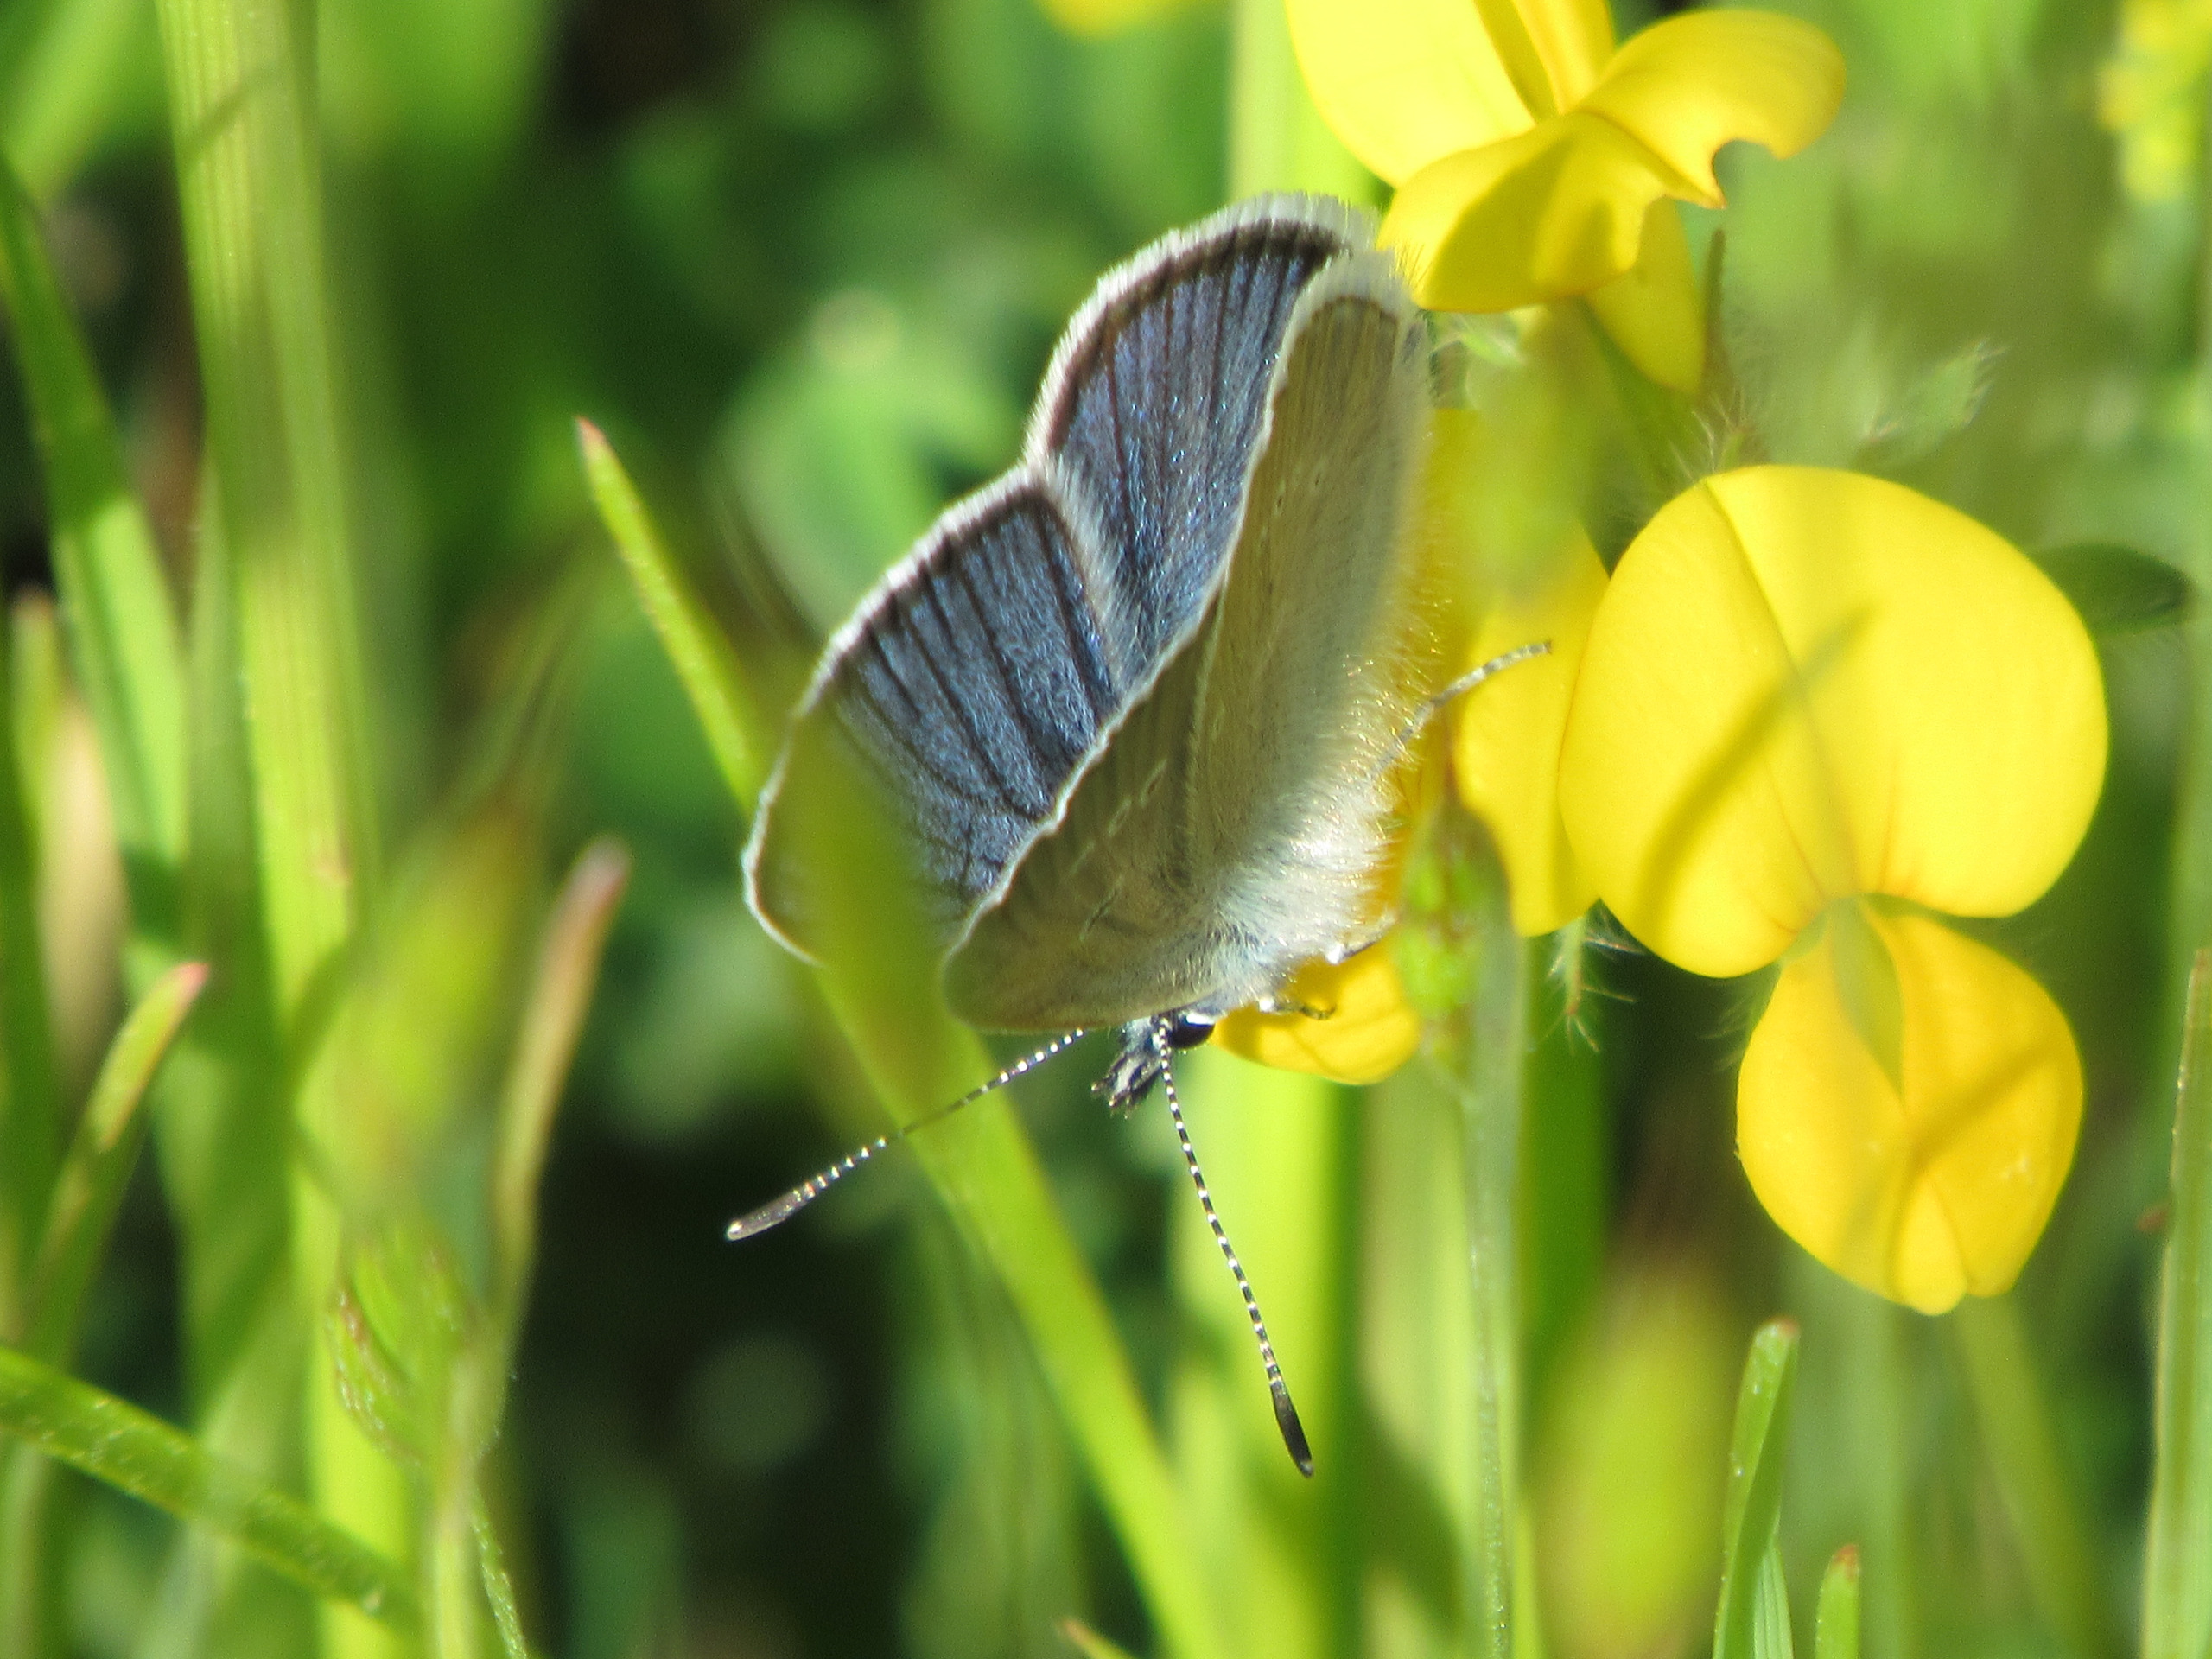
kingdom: Animalia
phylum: Arthropoda
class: Insecta
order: Lepidoptera
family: Lycaenidae
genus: Cyaniris
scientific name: Cyaniris semiargus
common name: Engblåfugl
